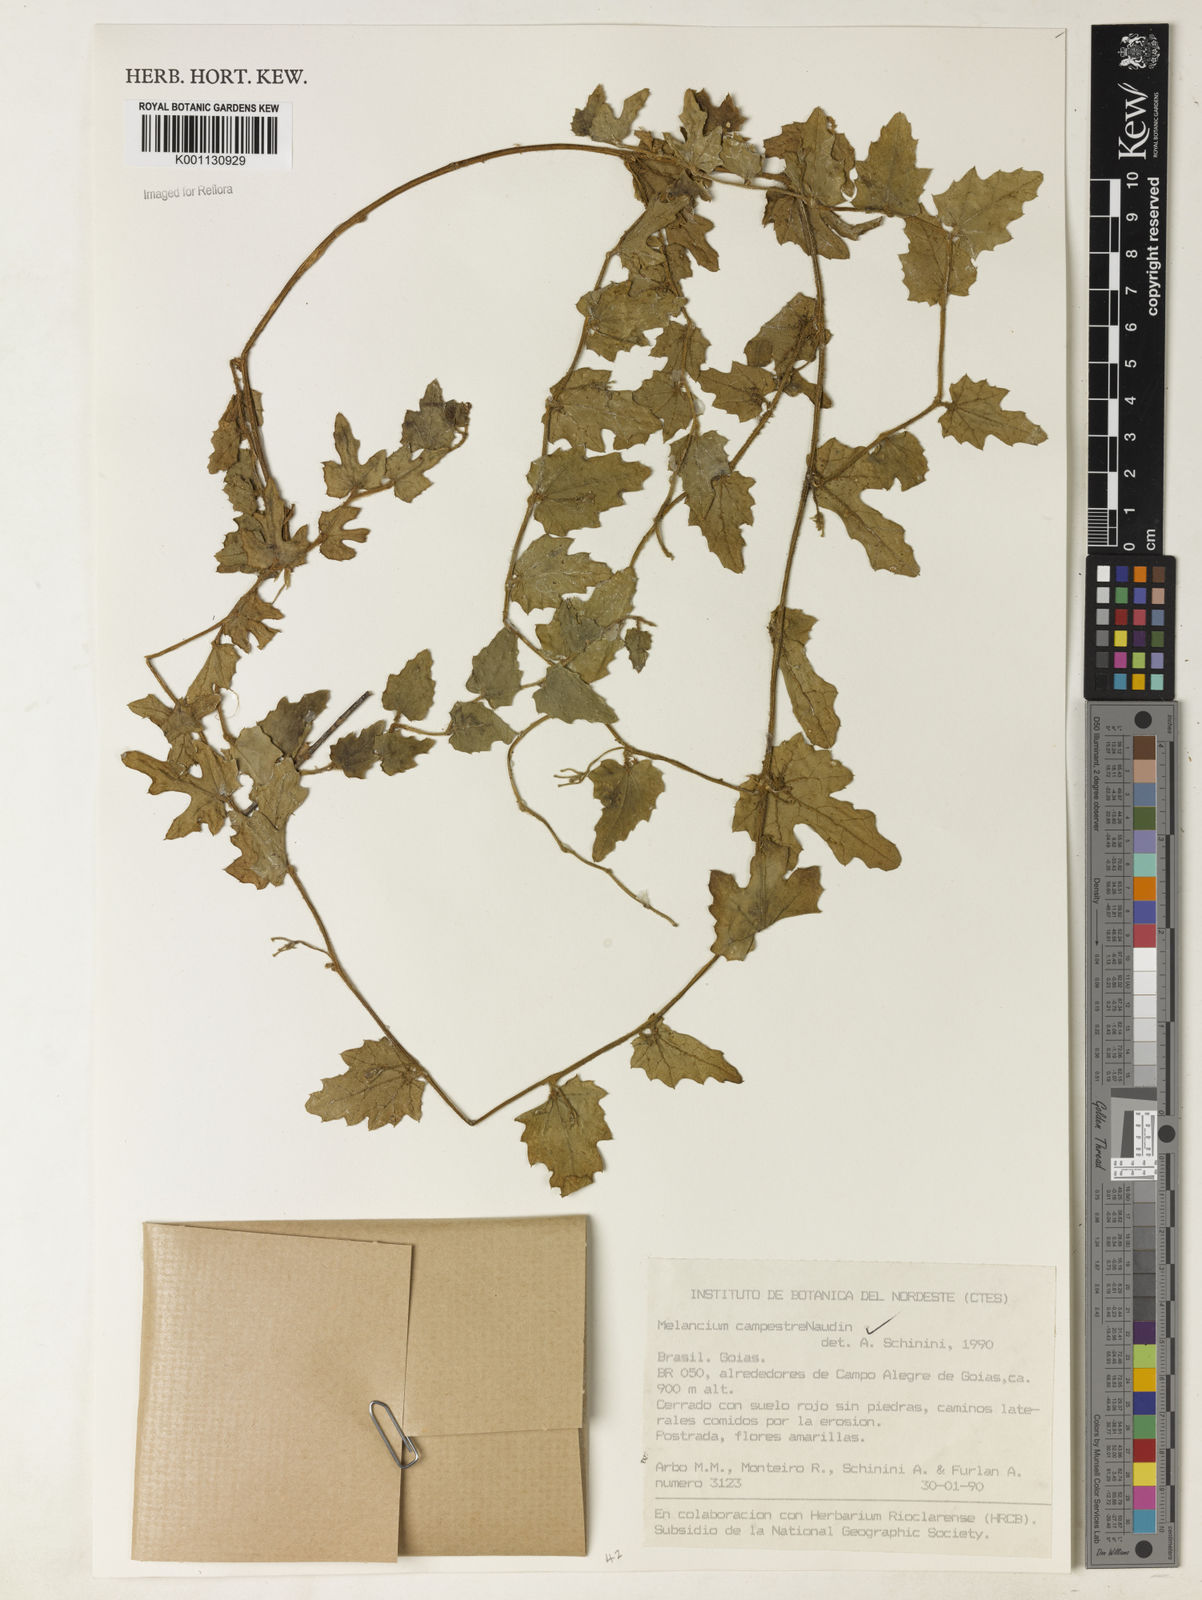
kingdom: Plantae
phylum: Tracheophyta
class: Magnoliopsida
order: Cucurbitales
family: Cucurbitaceae
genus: Melothria
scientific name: Melothria campestris
